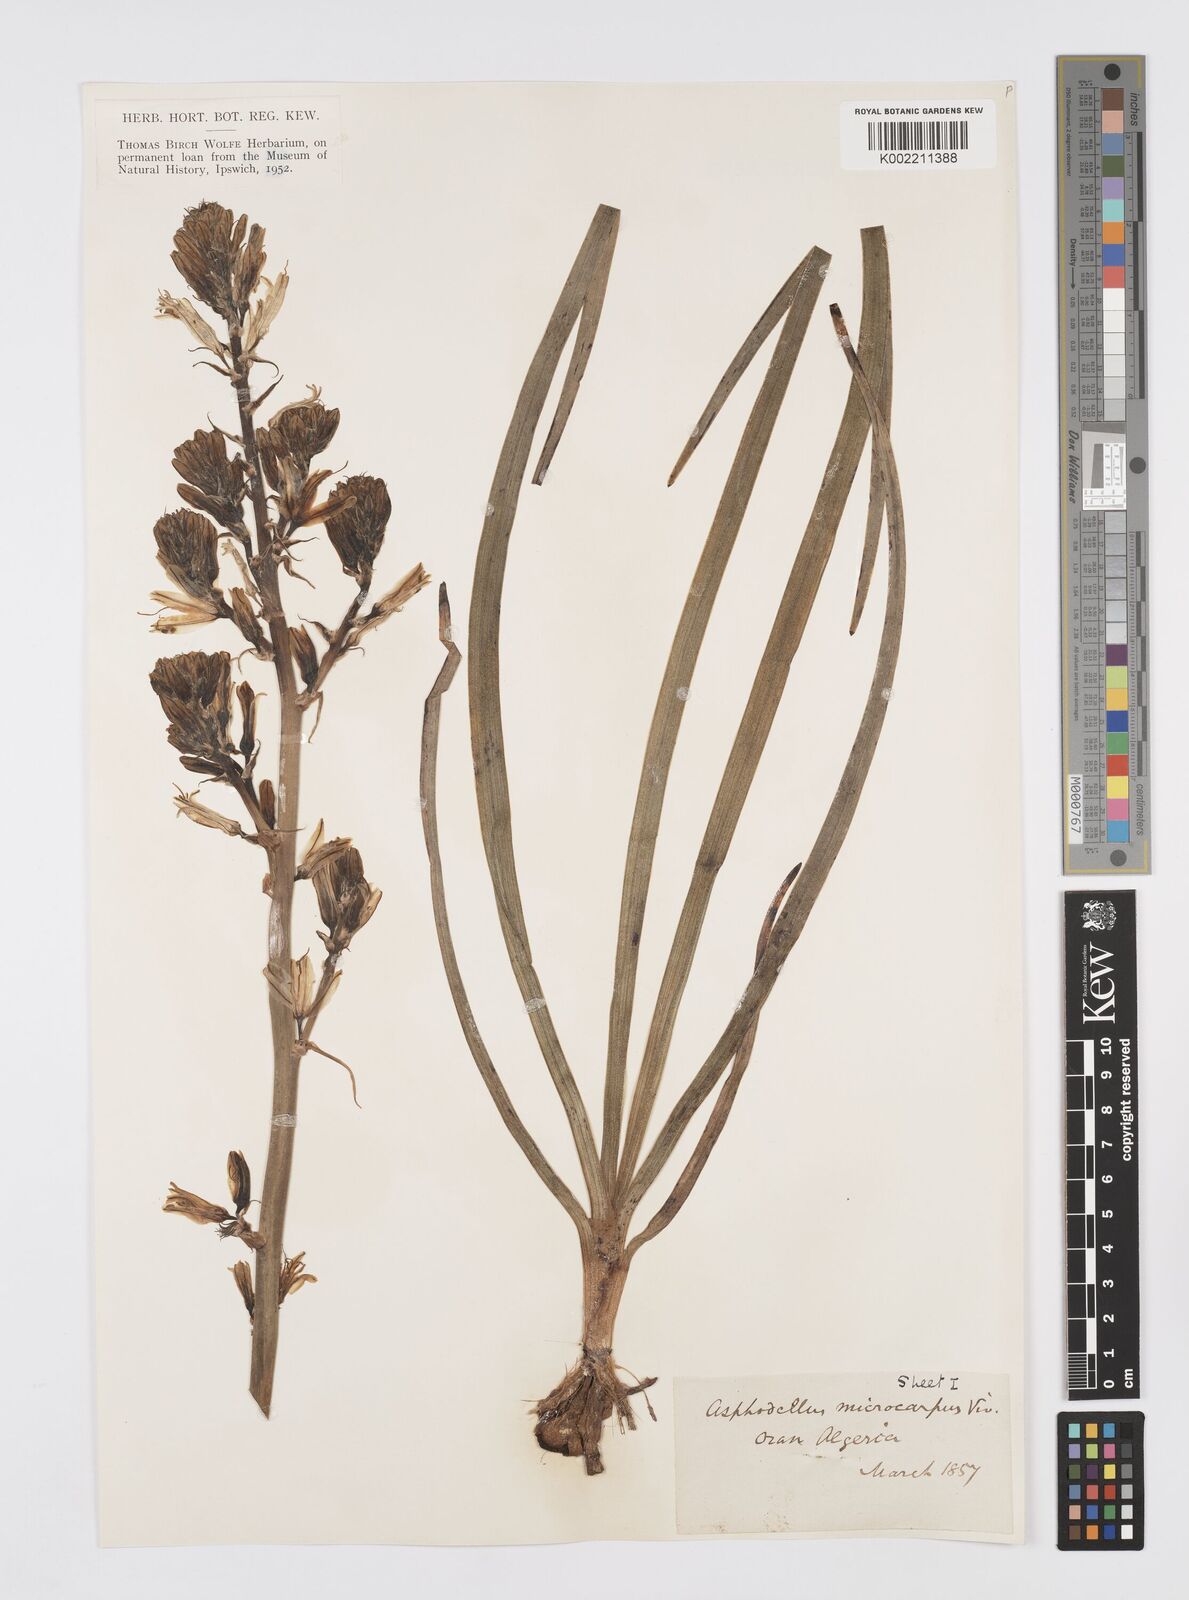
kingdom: Plantae
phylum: Tracheophyta
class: Liliopsida
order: Asparagales
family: Asphodelaceae
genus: Asphodelus
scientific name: Asphodelus ramosus
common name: Silverrod
